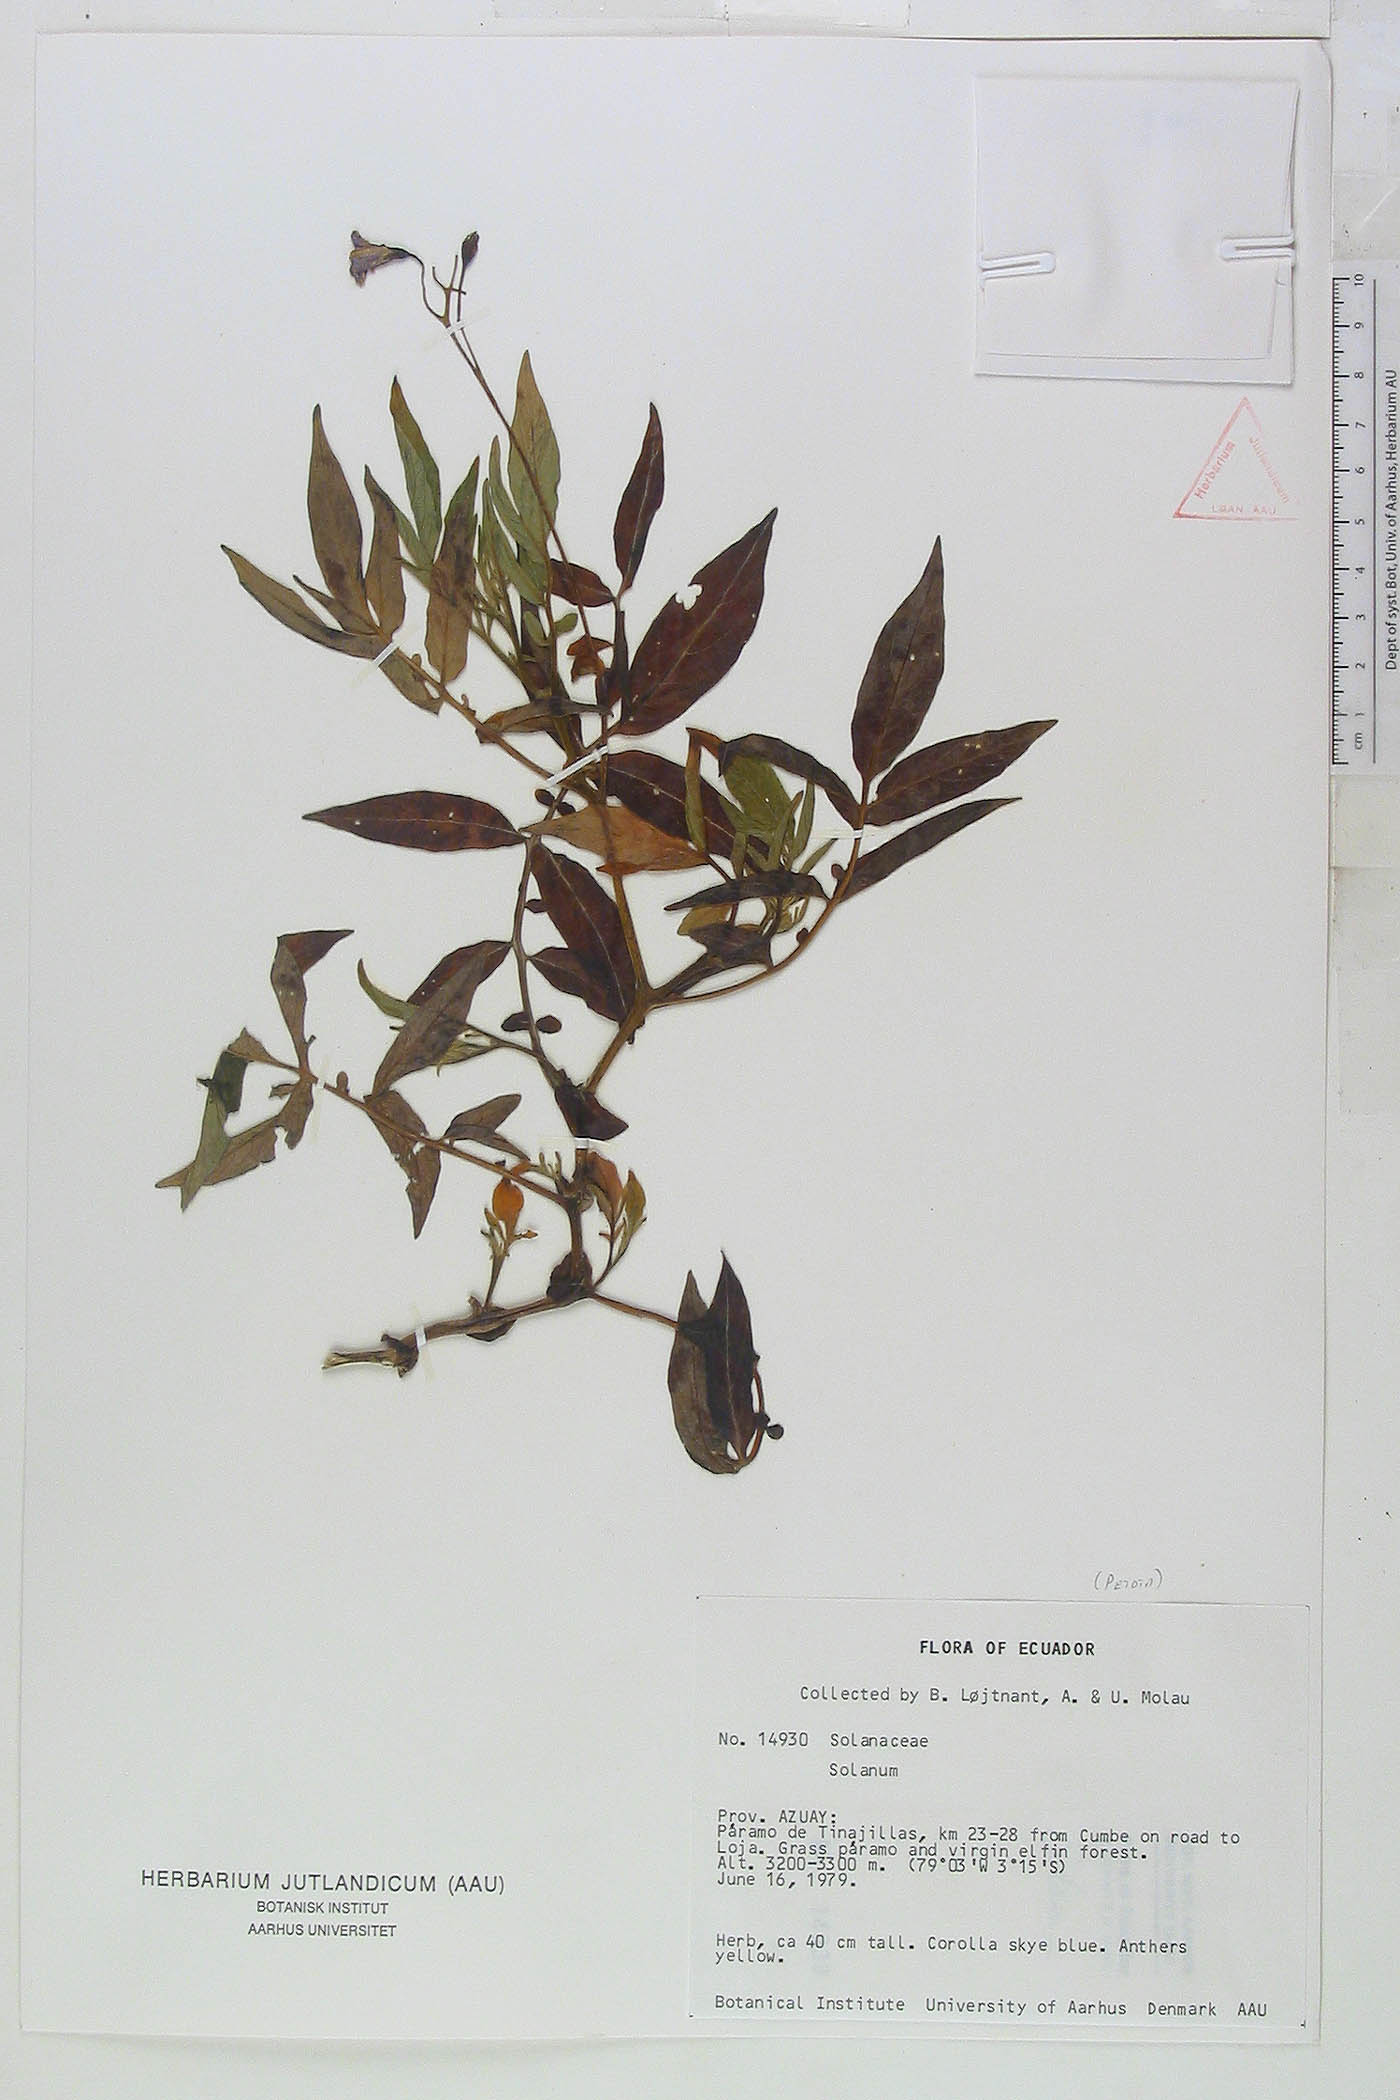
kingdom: Plantae
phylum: Tracheophyta
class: Magnoliopsida
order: Solanales
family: Solanaceae
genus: Solanum
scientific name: Solanum colombianum
